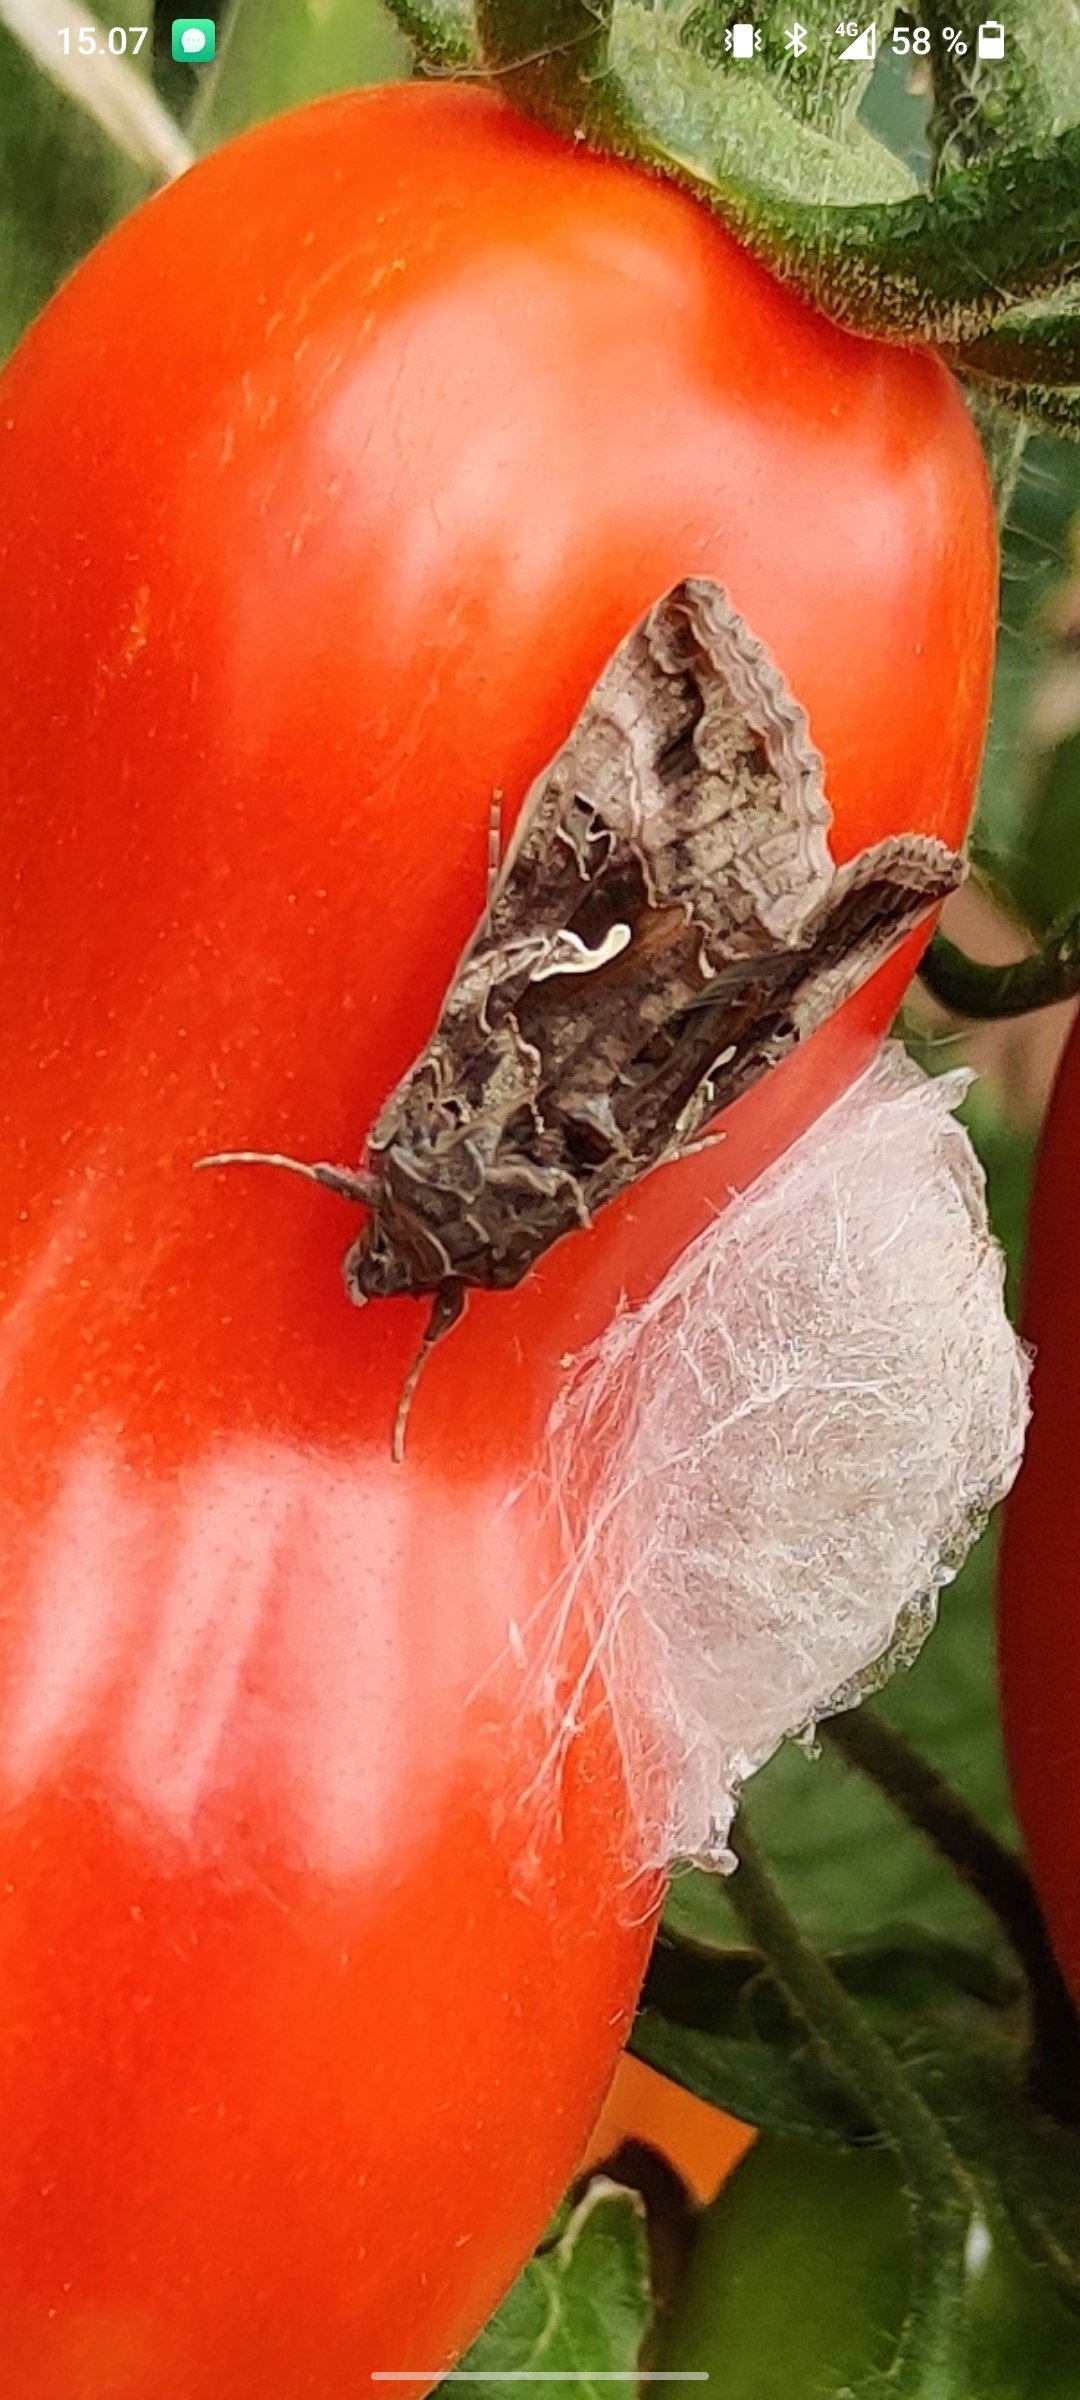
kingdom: Animalia
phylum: Arthropoda
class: Insecta
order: Lepidoptera
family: Noctuidae
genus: Autographa
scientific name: Autographa gamma
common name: Gammaugle
